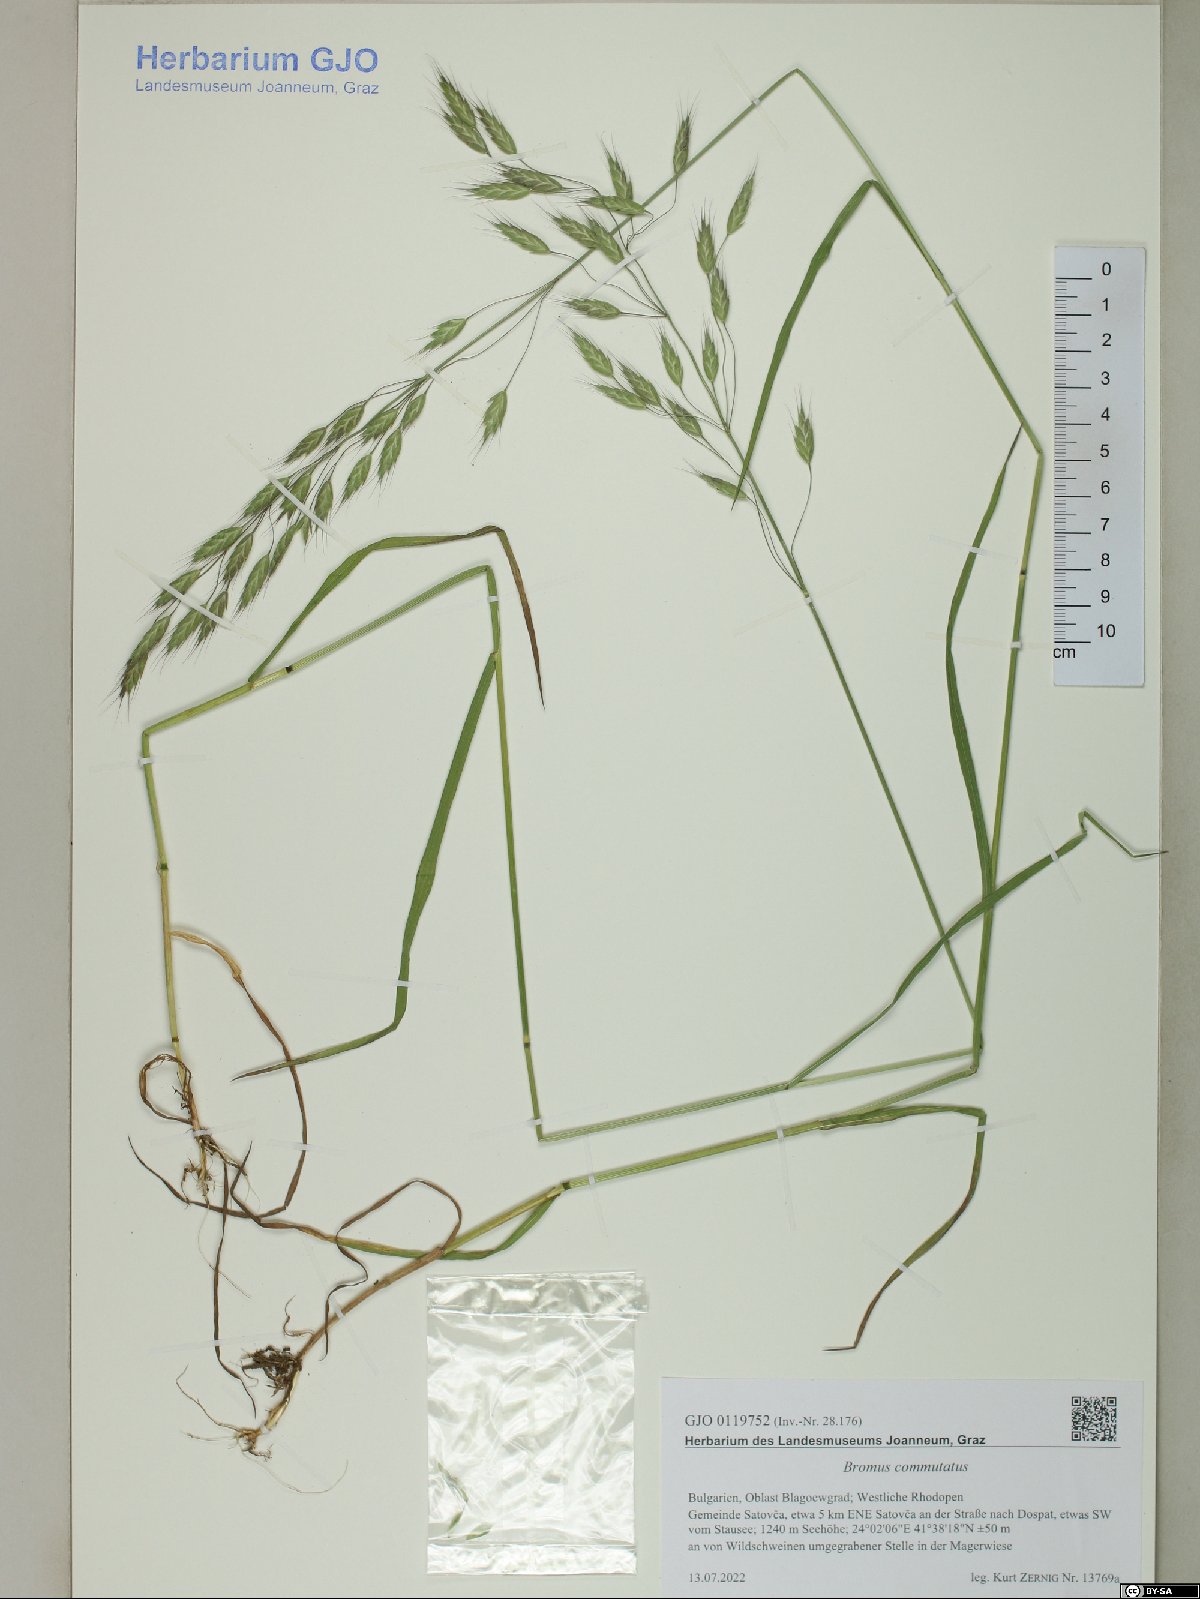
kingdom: Plantae
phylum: Tracheophyta
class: Liliopsida
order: Poales
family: Poaceae
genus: Bromus
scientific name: Bromus commutatus
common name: Meadow brome
